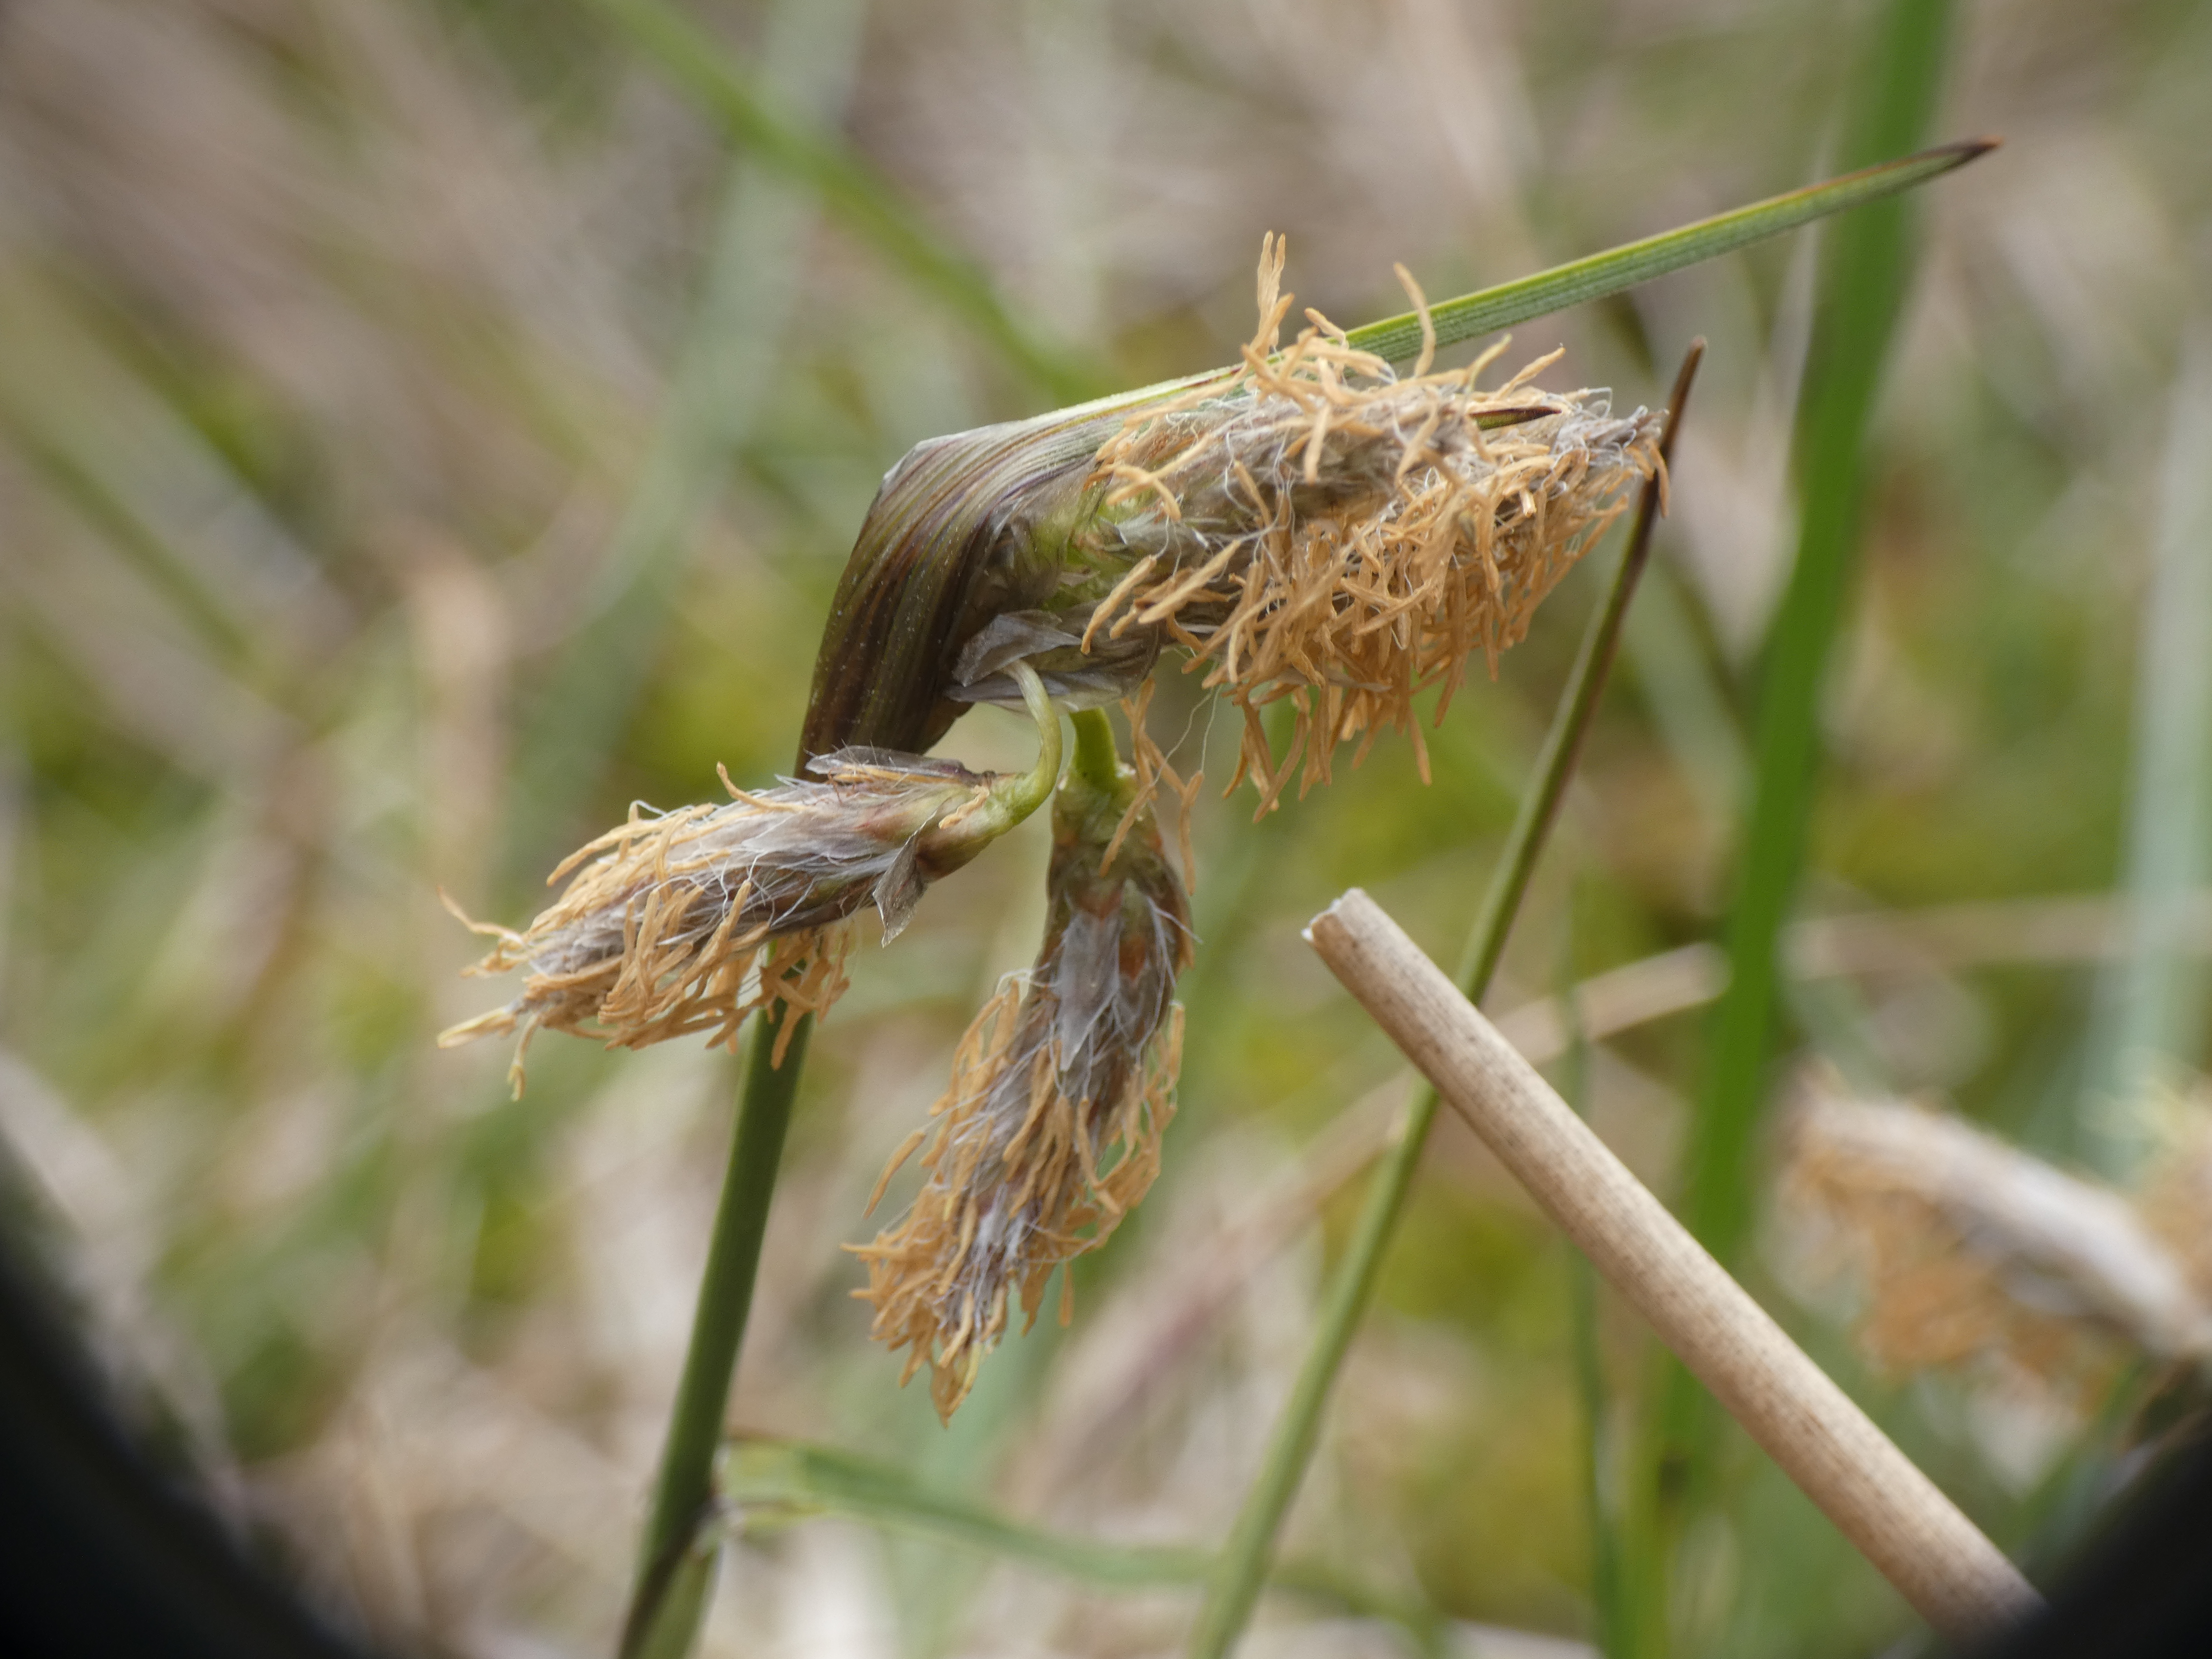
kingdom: Plantae
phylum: Tracheophyta
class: Liliopsida
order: Poales
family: Cyperaceae
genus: Eriophorum
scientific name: Eriophorum angustifolium
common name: Smalbladet kæruld
